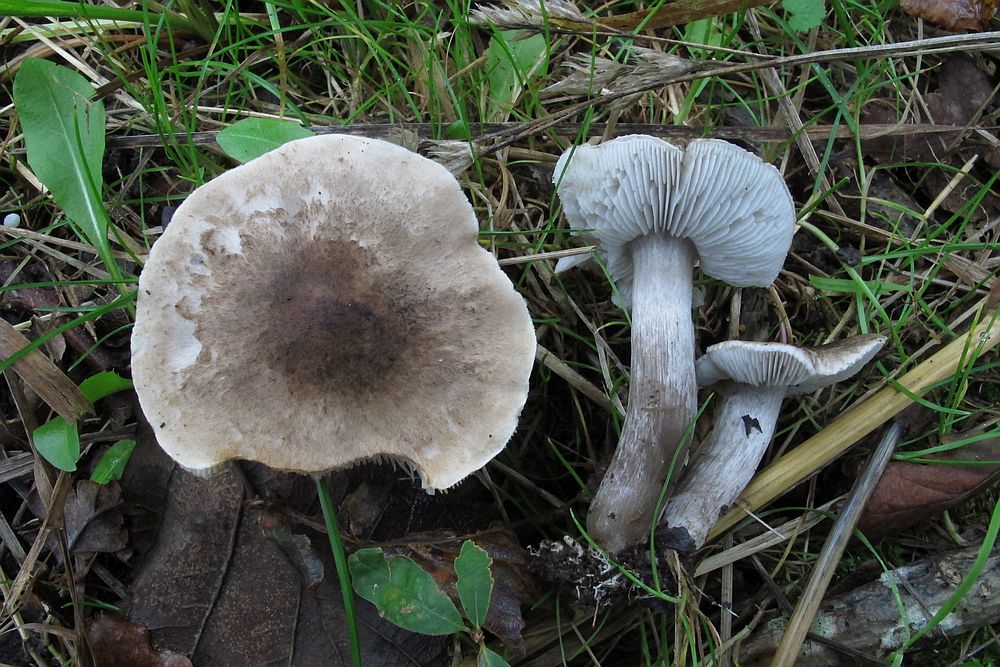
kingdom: Fungi
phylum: Basidiomycota
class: Agaricomycetes
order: Agaricales
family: Tricholomataceae
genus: Tricholoma
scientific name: Tricholoma scalpturatum
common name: gulplettet ridderhat
